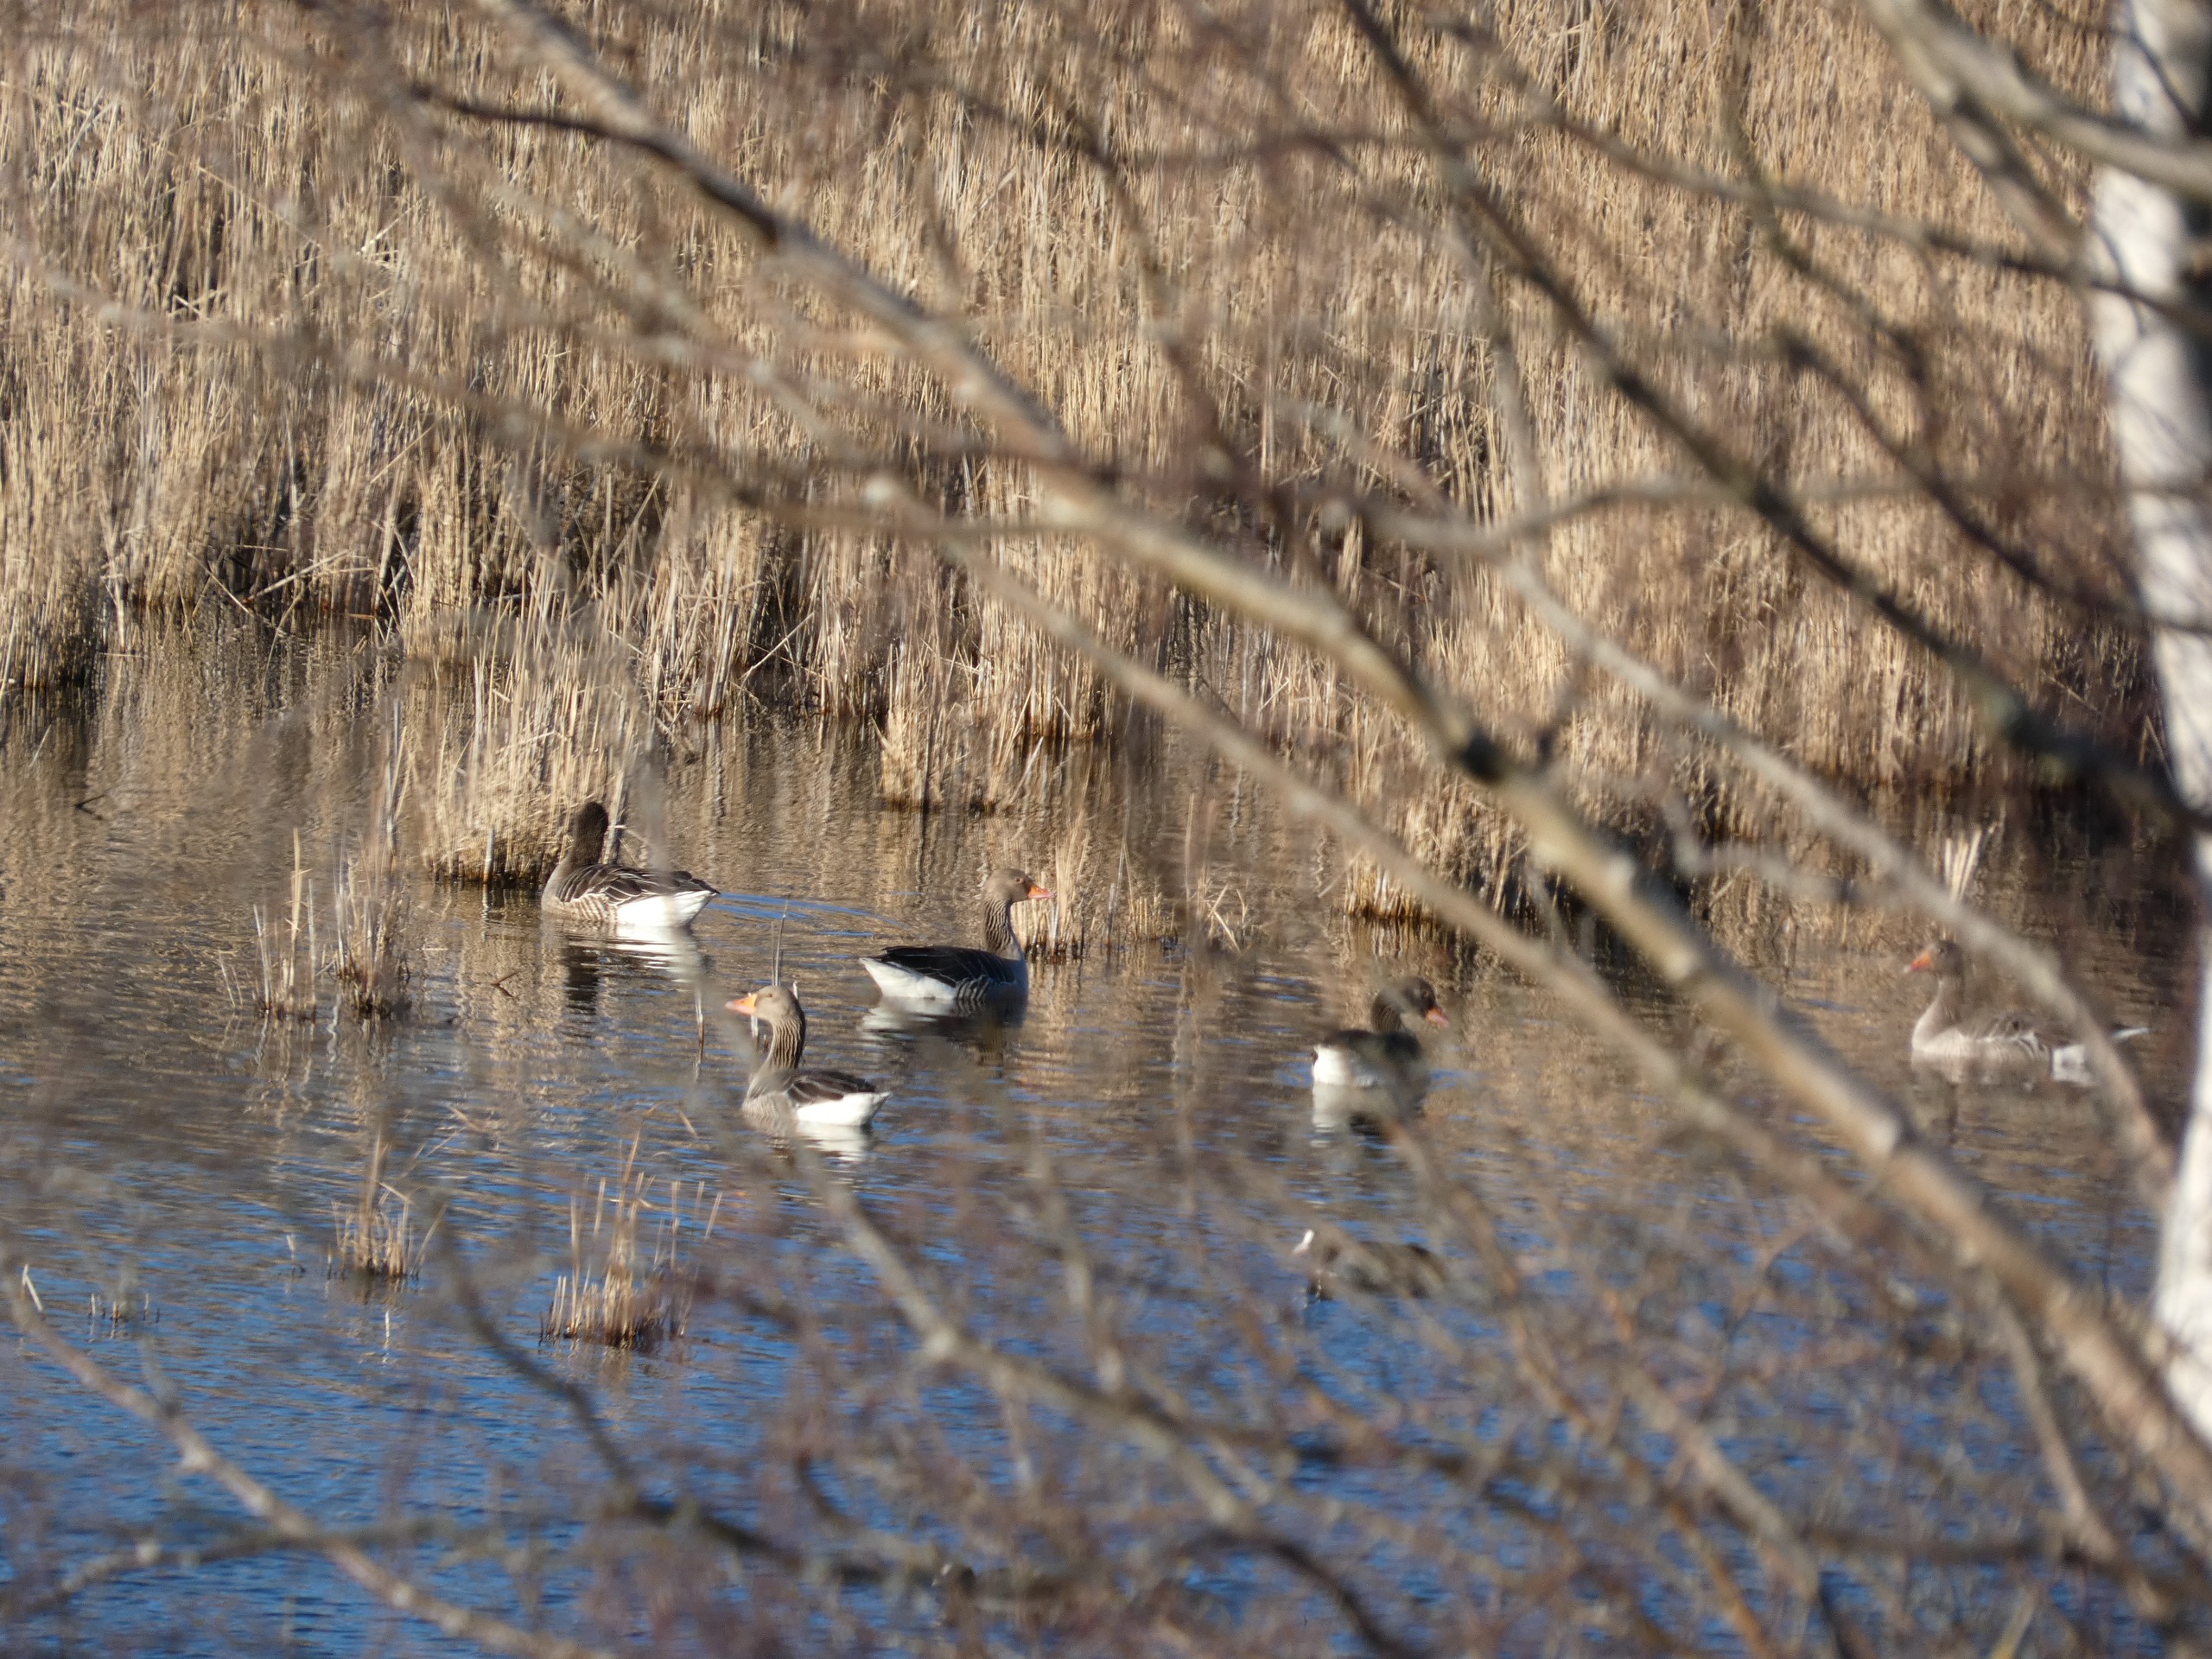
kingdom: Animalia
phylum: Chordata
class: Aves
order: Anseriformes
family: Anatidae
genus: Anser
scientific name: Anser anser
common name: Grågås
